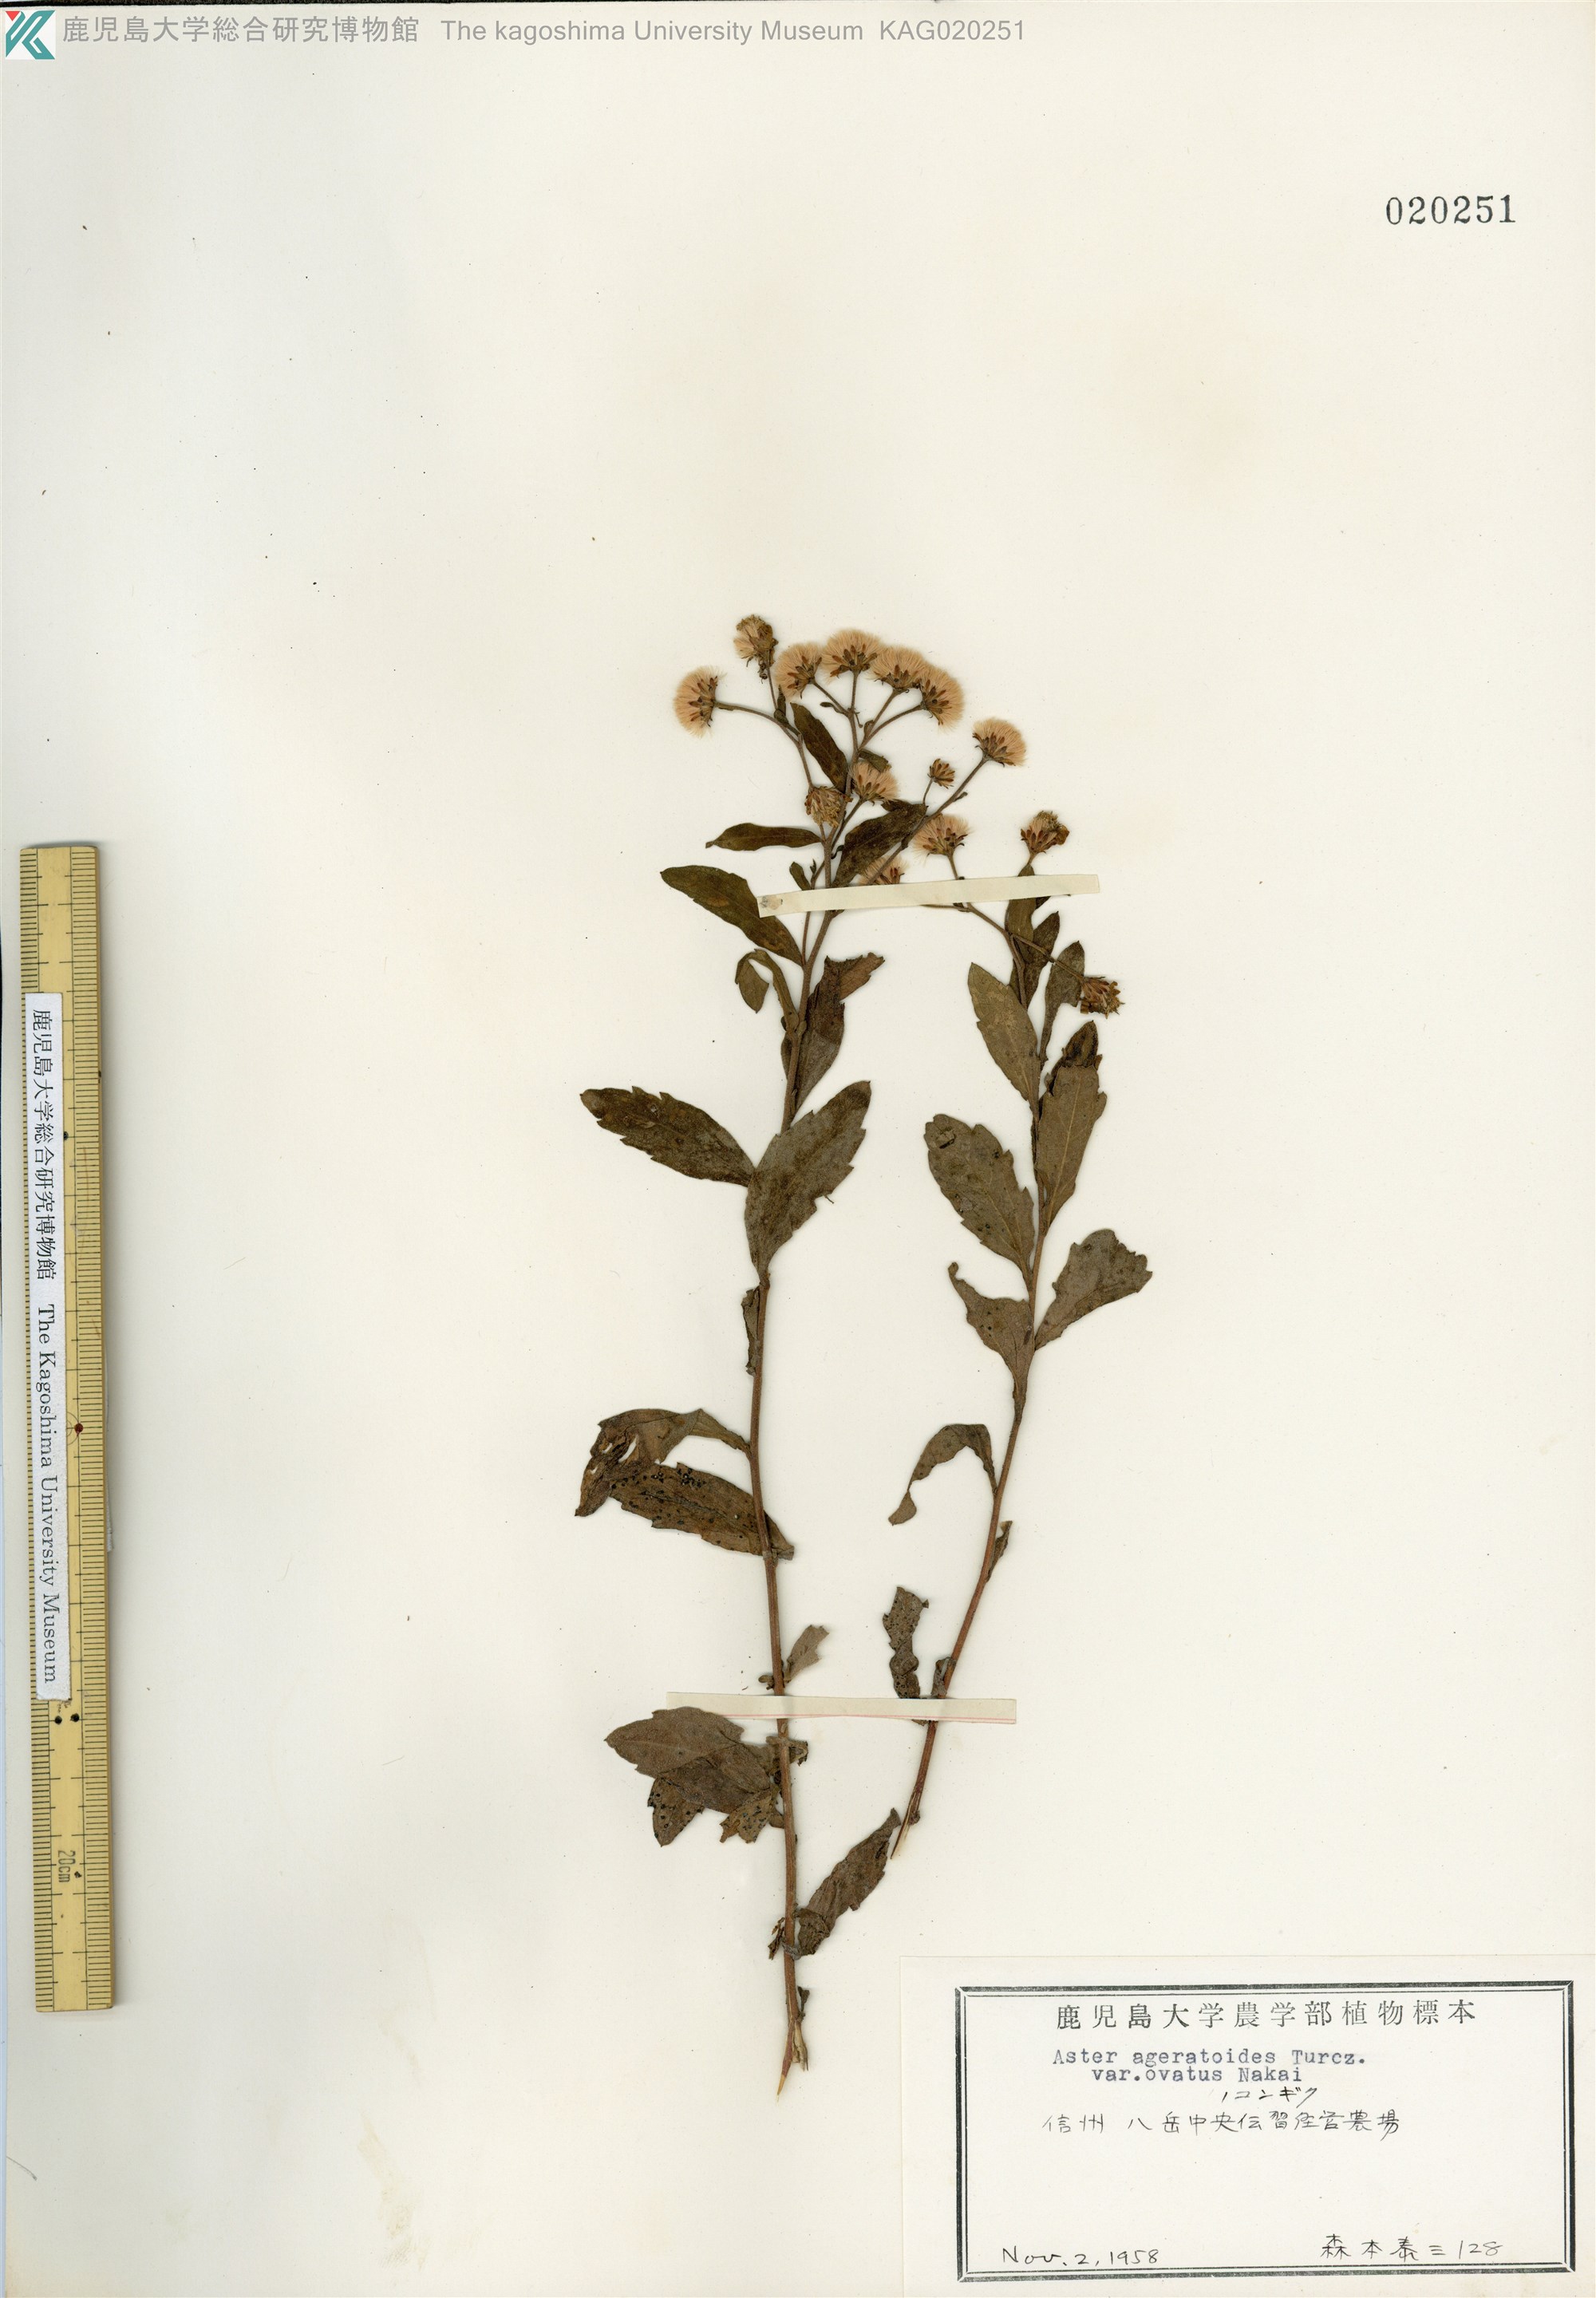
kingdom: Plantae
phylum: Tracheophyta
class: Magnoliopsida
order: Asterales
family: Asteraceae
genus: Aster
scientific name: Aster microcephalus
